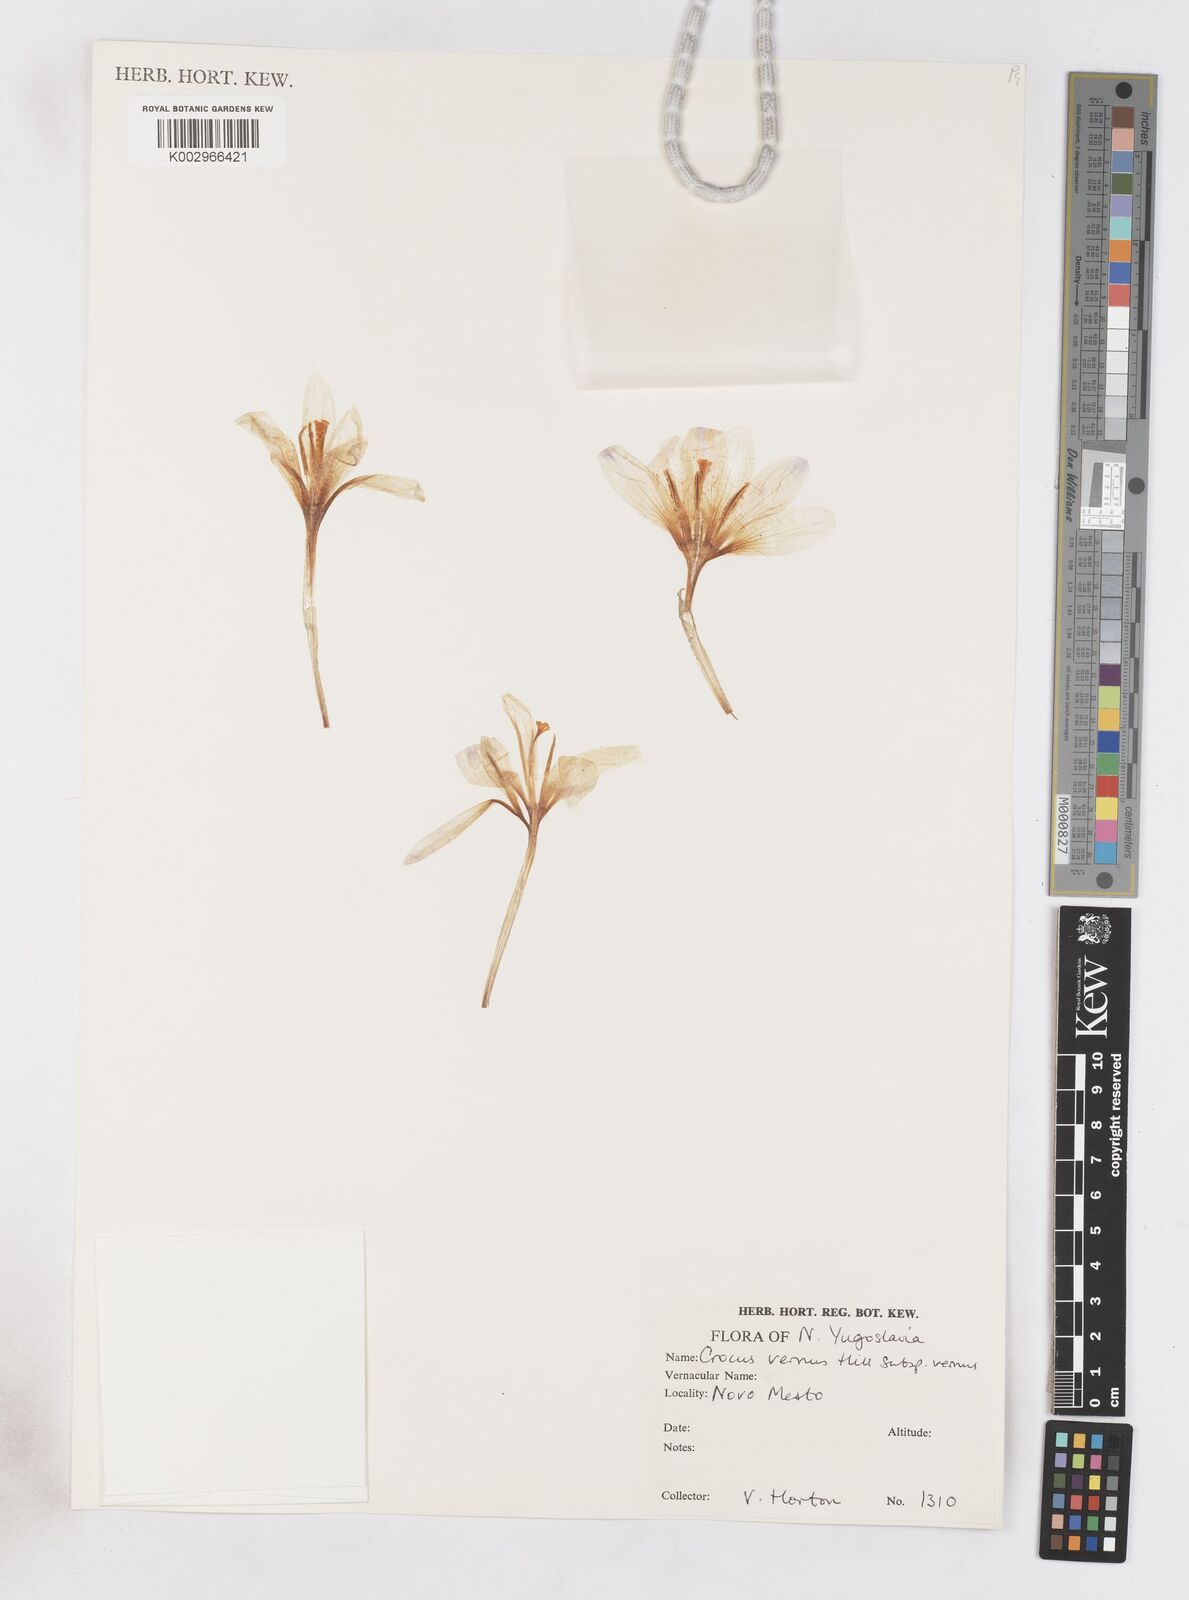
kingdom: Plantae
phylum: Tracheophyta
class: Liliopsida
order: Asparagales
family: Iridaceae
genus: Crocus
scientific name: Crocus vernus
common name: Spring crocus
